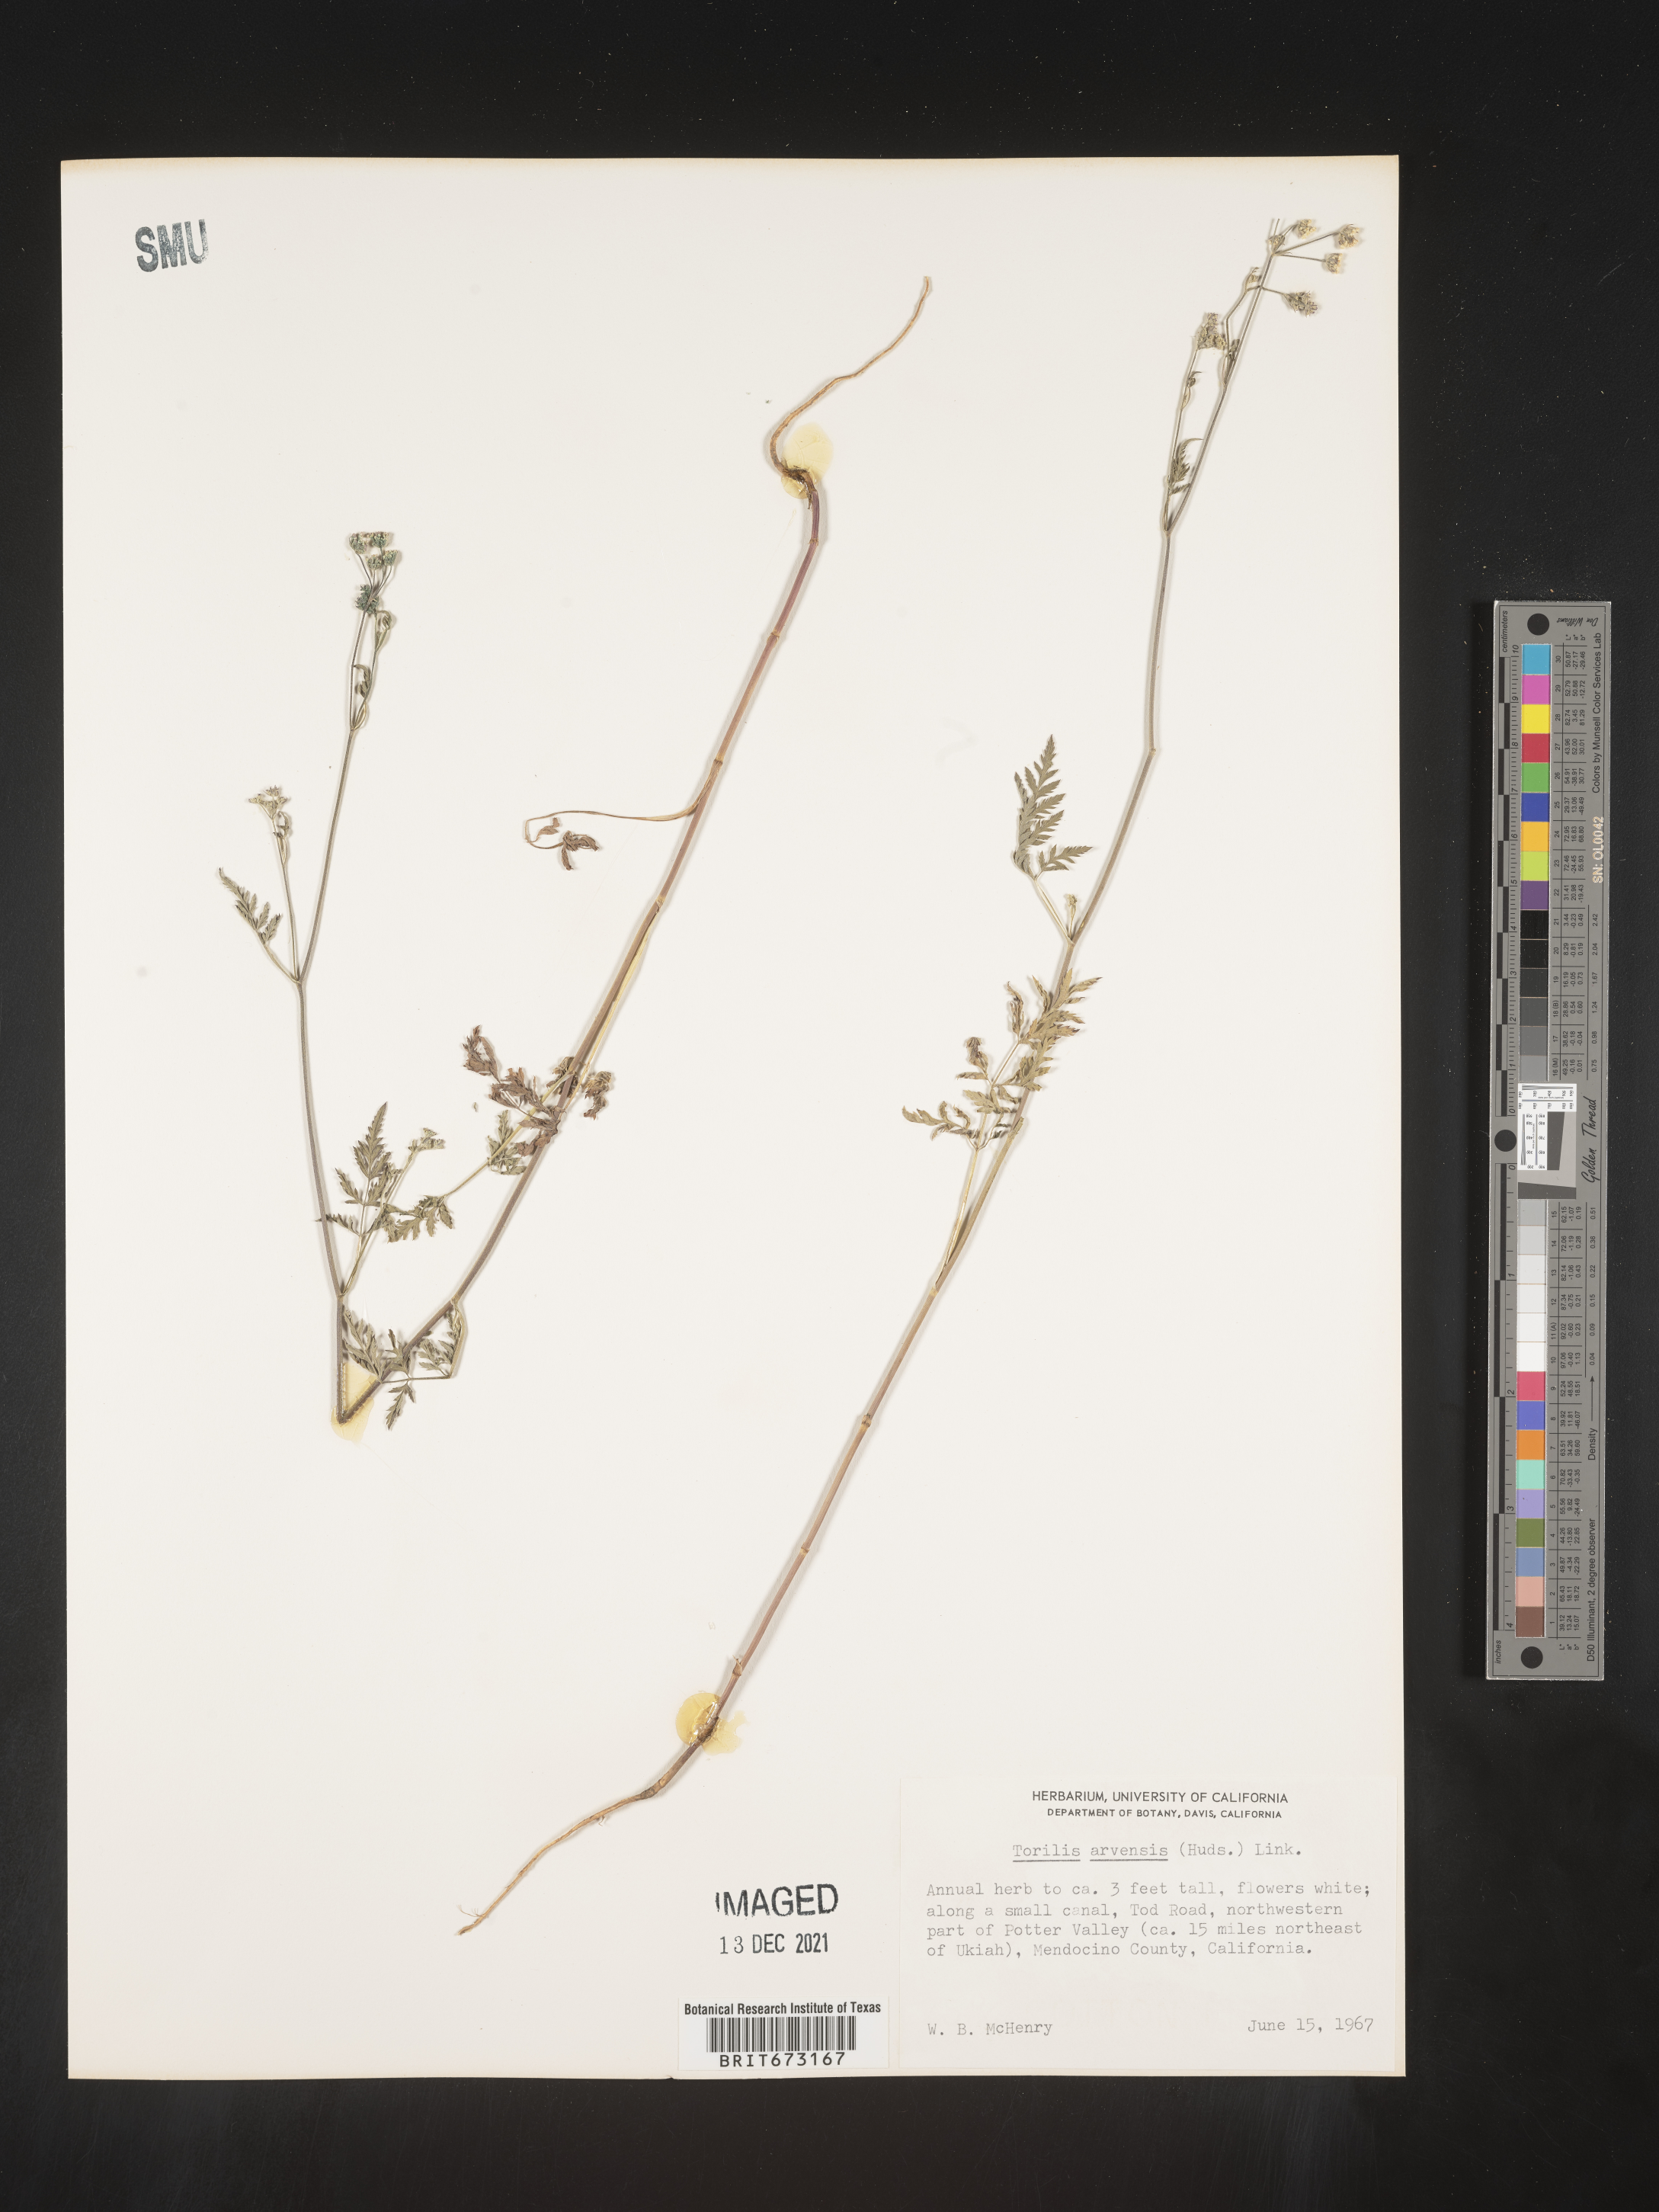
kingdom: Plantae
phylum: Tracheophyta
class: Magnoliopsida
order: Apiales
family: Apiaceae
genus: Torilis
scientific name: Torilis arvensis
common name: Spreading hedge-parsley
